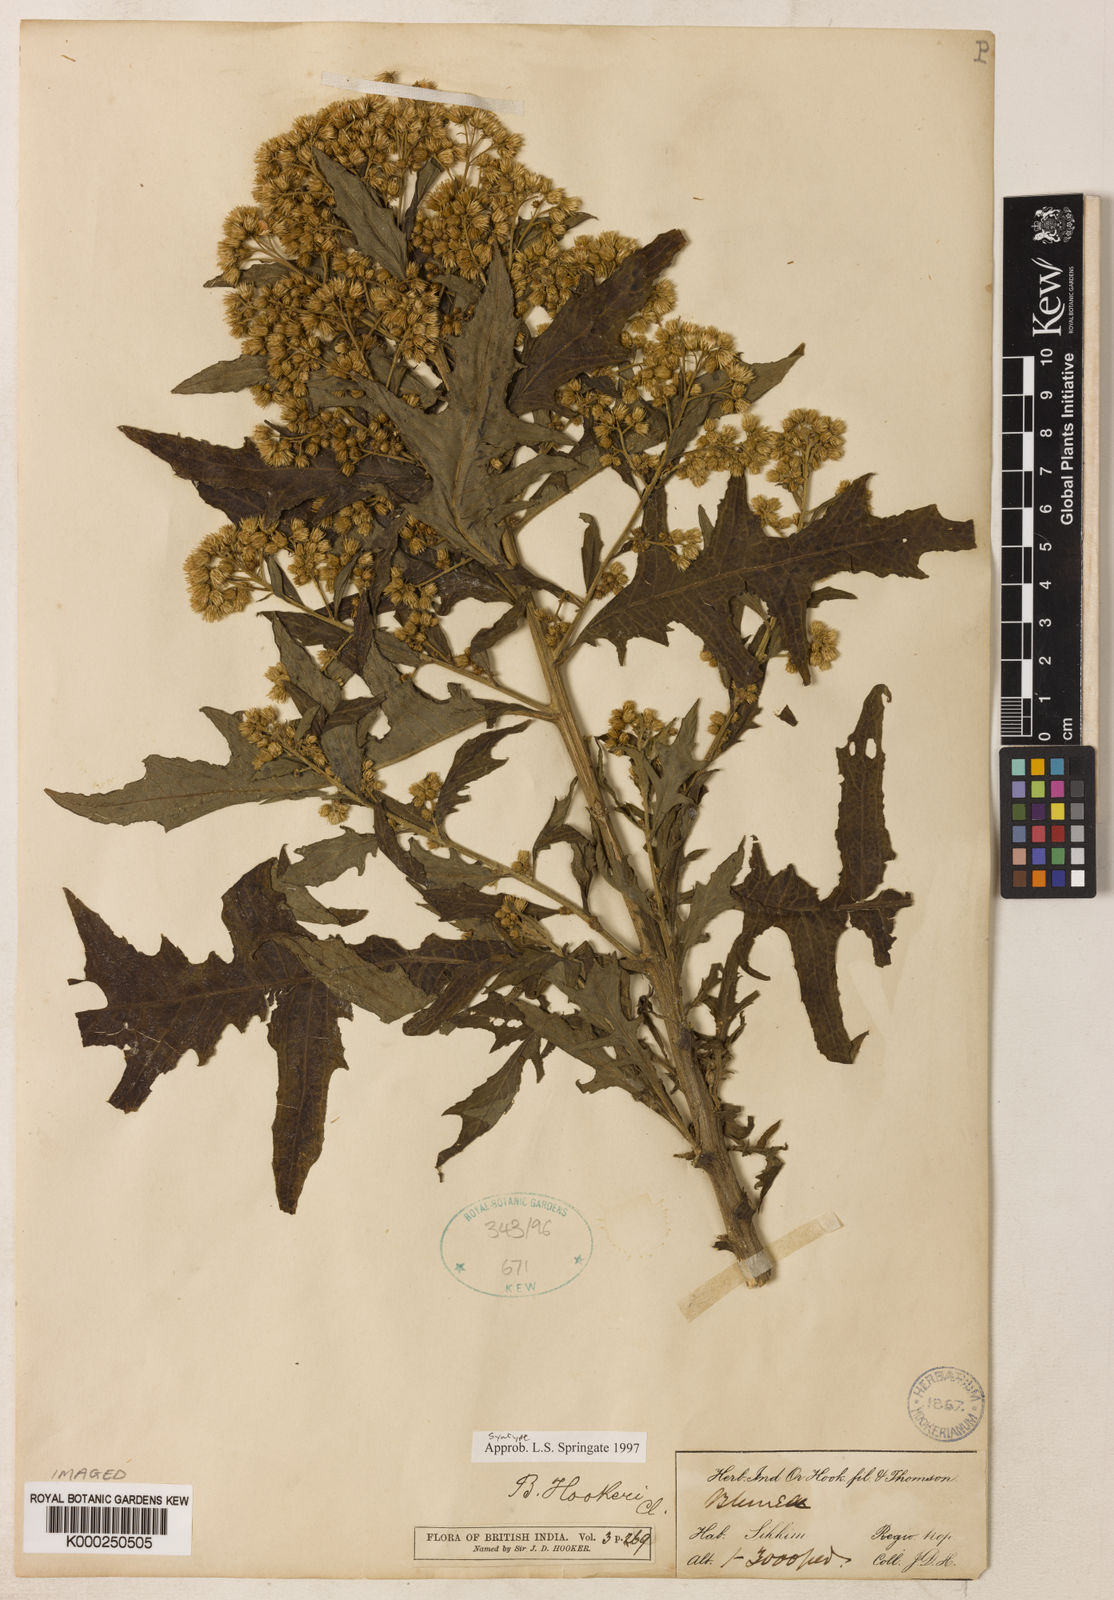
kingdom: Plantae
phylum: Tracheophyta
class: Magnoliopsida
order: Asterales
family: Asteraceae
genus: Blumea
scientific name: Blumea hookeri
